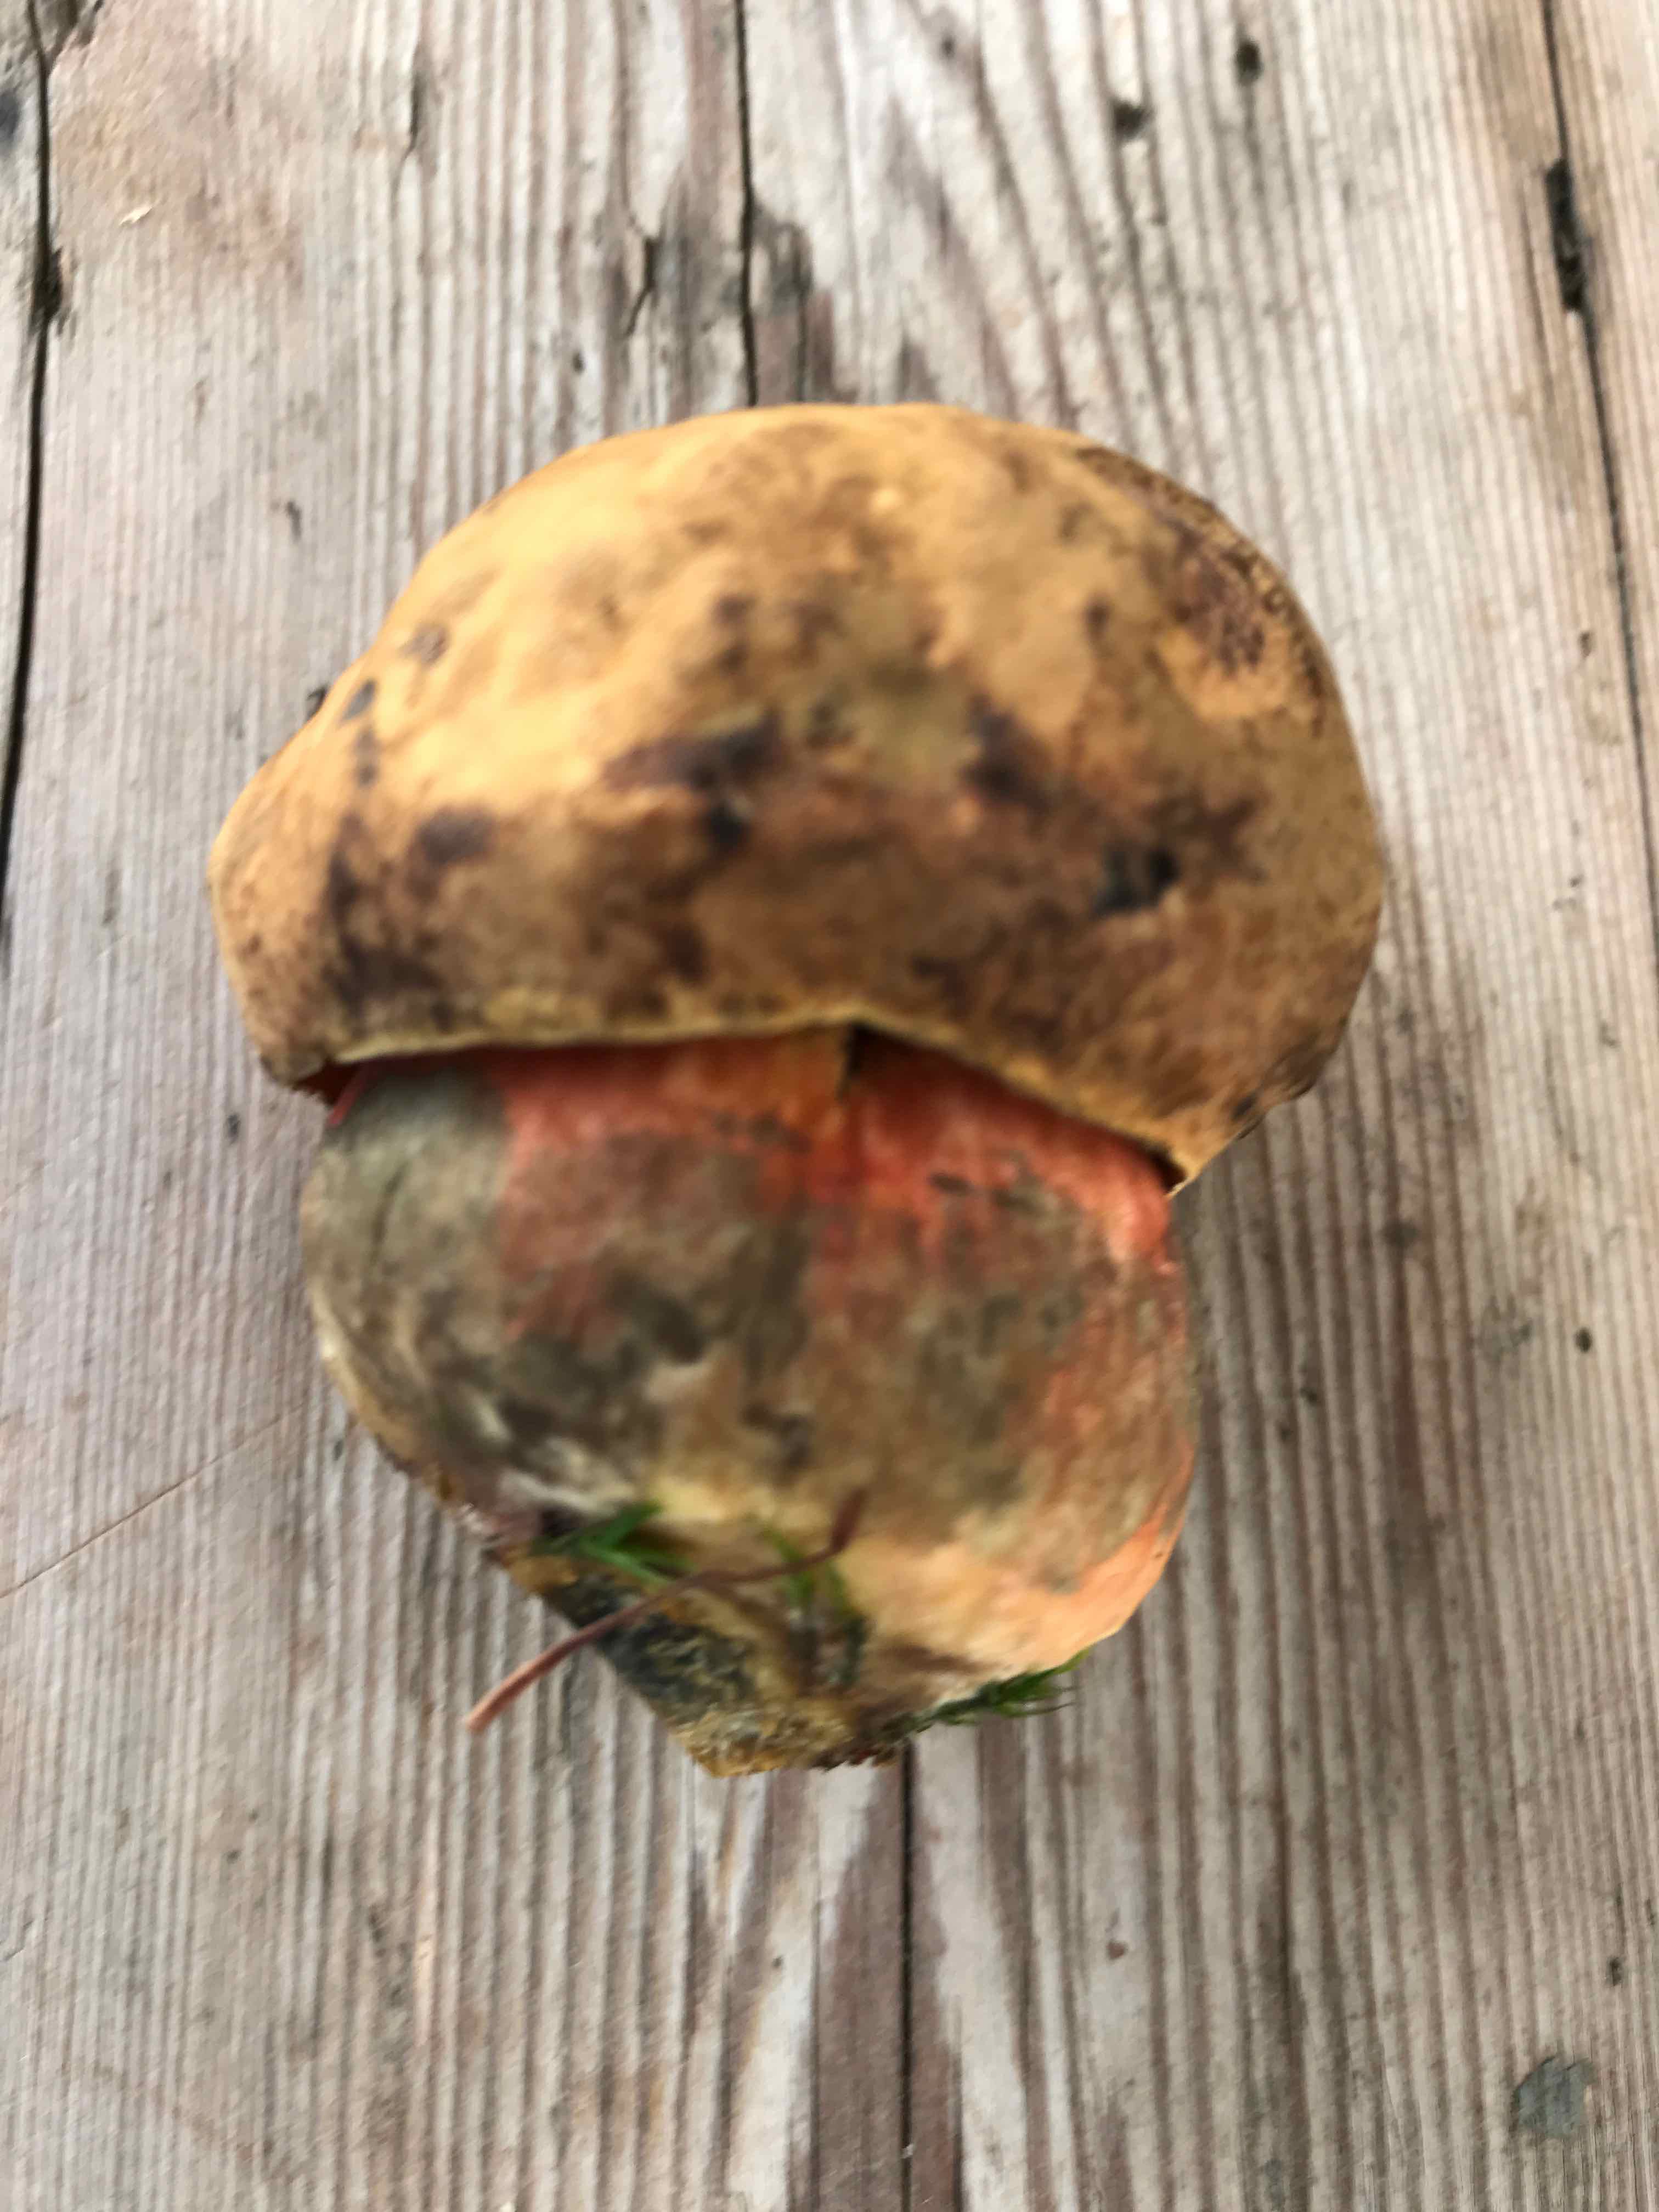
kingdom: Fungi
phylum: Basidiomycota
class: Agaricomycetes
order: Boletales
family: Boletaceae
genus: Neoboletus
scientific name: Neoboletus erythropus
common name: punktstokket indigorørhat
